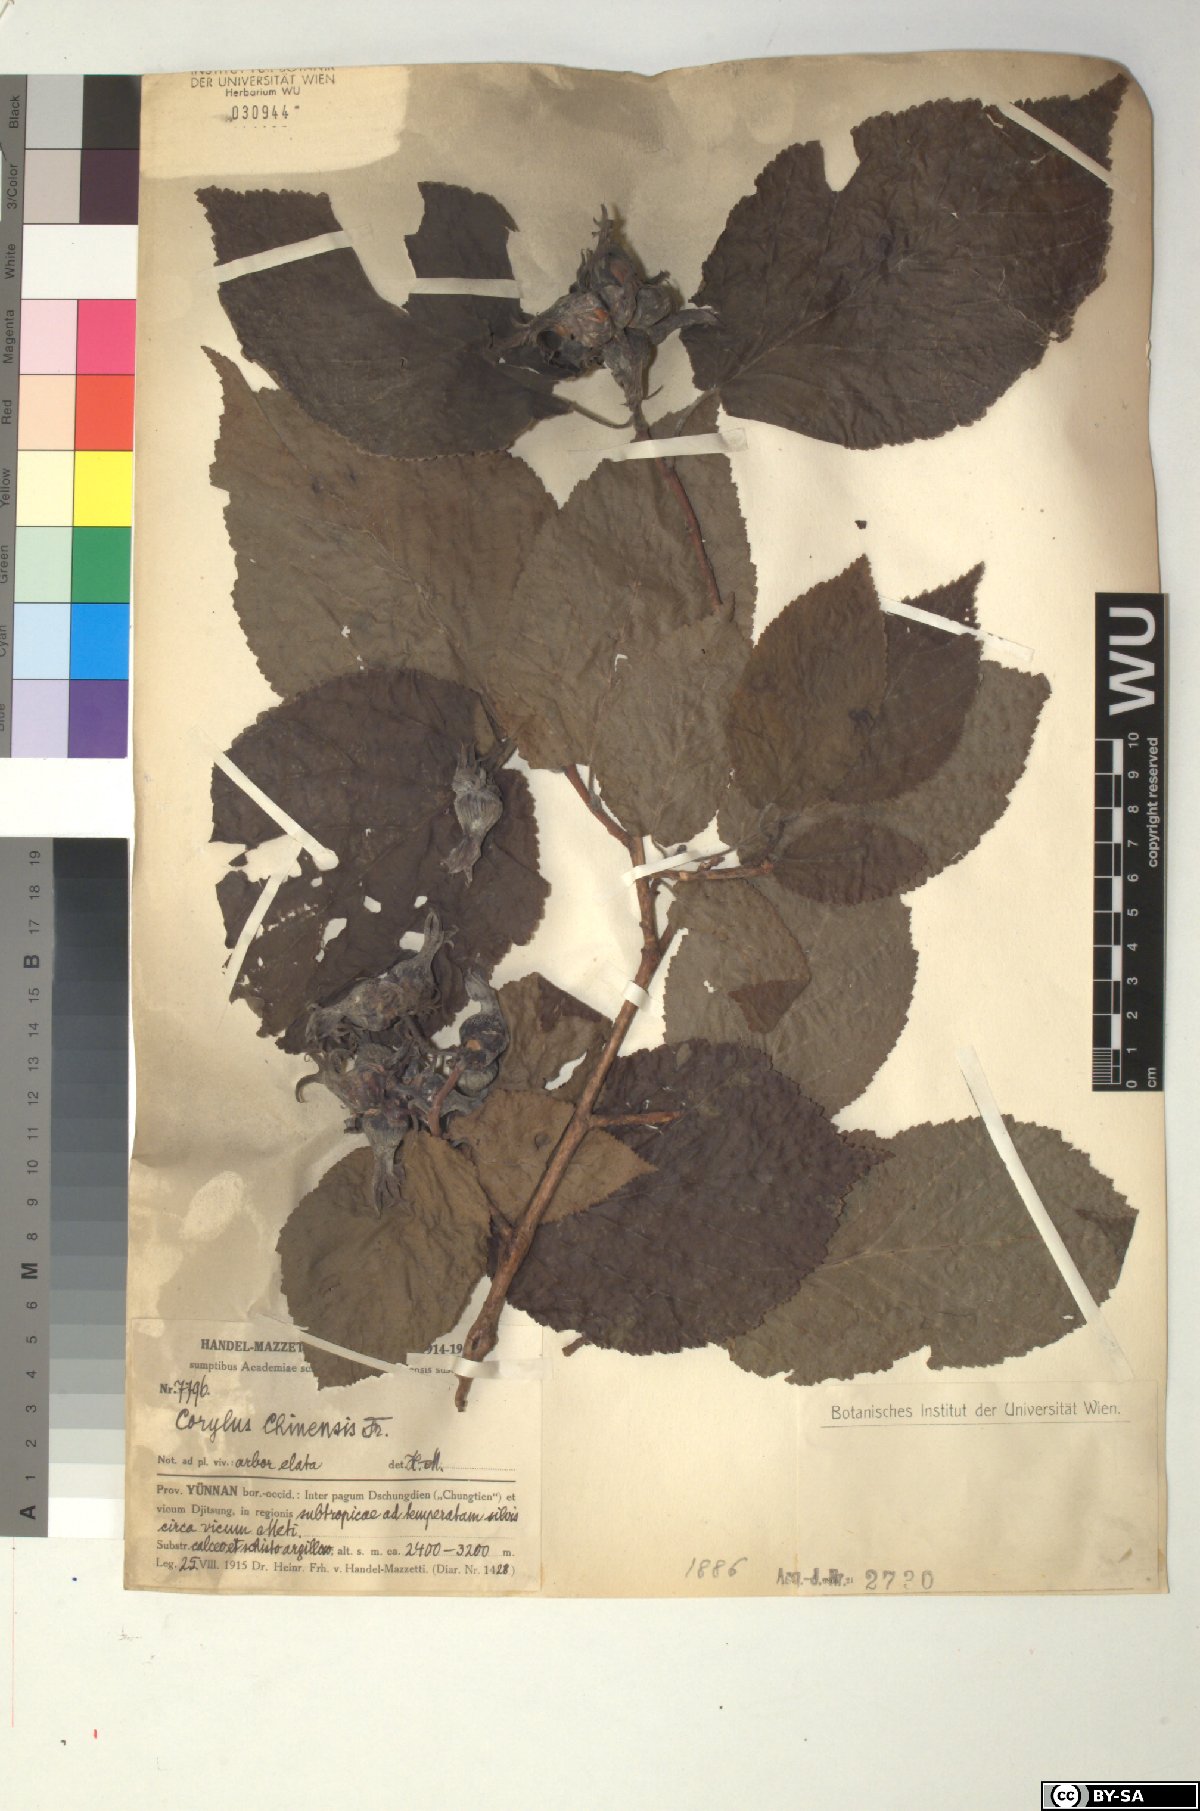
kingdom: Plantae
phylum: Tracheophyta
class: Magnoliopsida
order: Fagales
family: Betulaceae
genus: Corylus
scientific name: Corylus chinensis
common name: Chinese hazlenut
